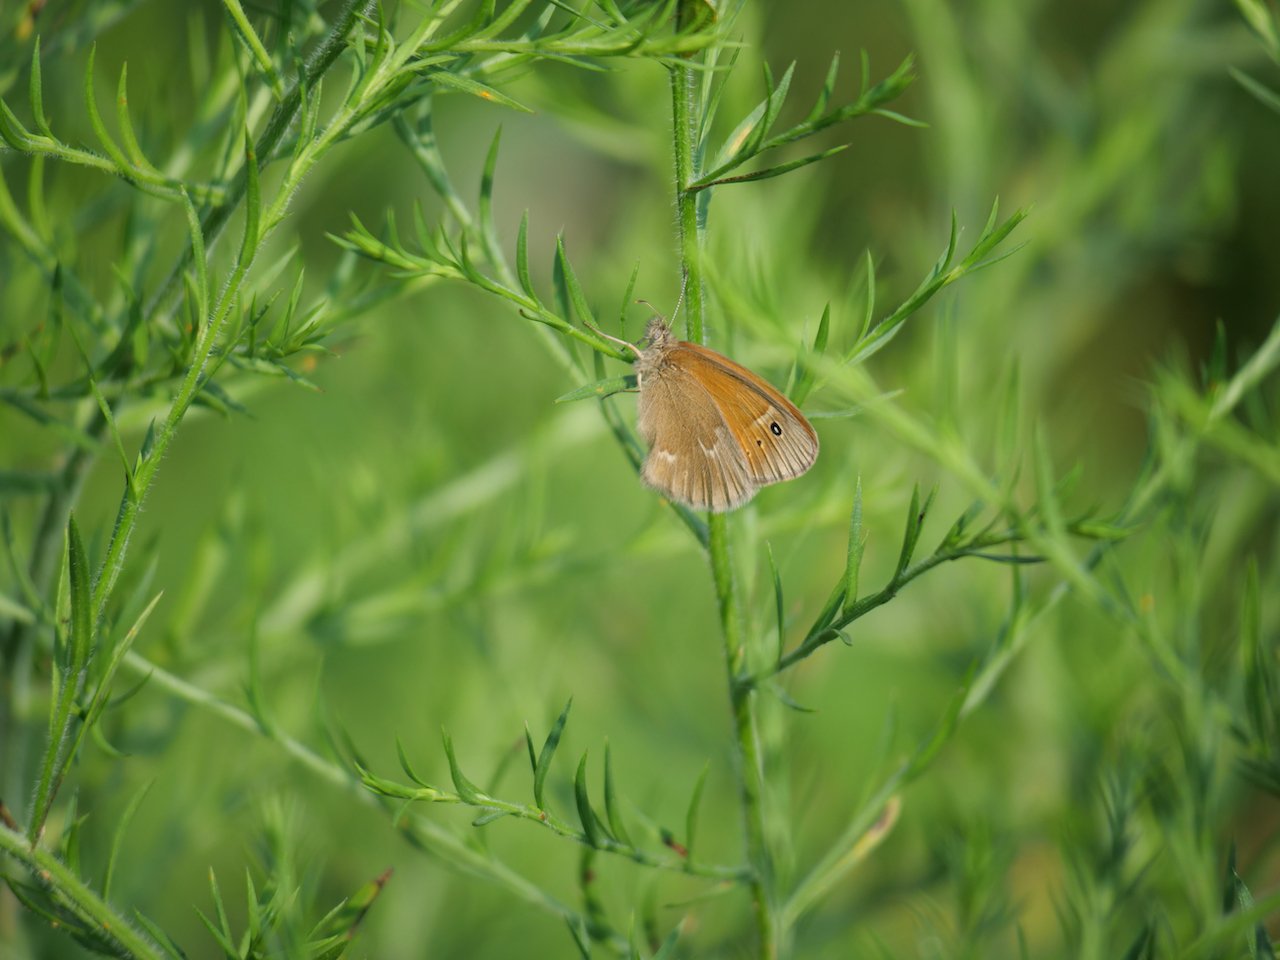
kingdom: Animalia
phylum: Arthropoda
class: Insecta
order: Lepidoptera
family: Nymphalidae
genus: Coenonympha
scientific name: Coenonympha tullia
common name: Large Heath
